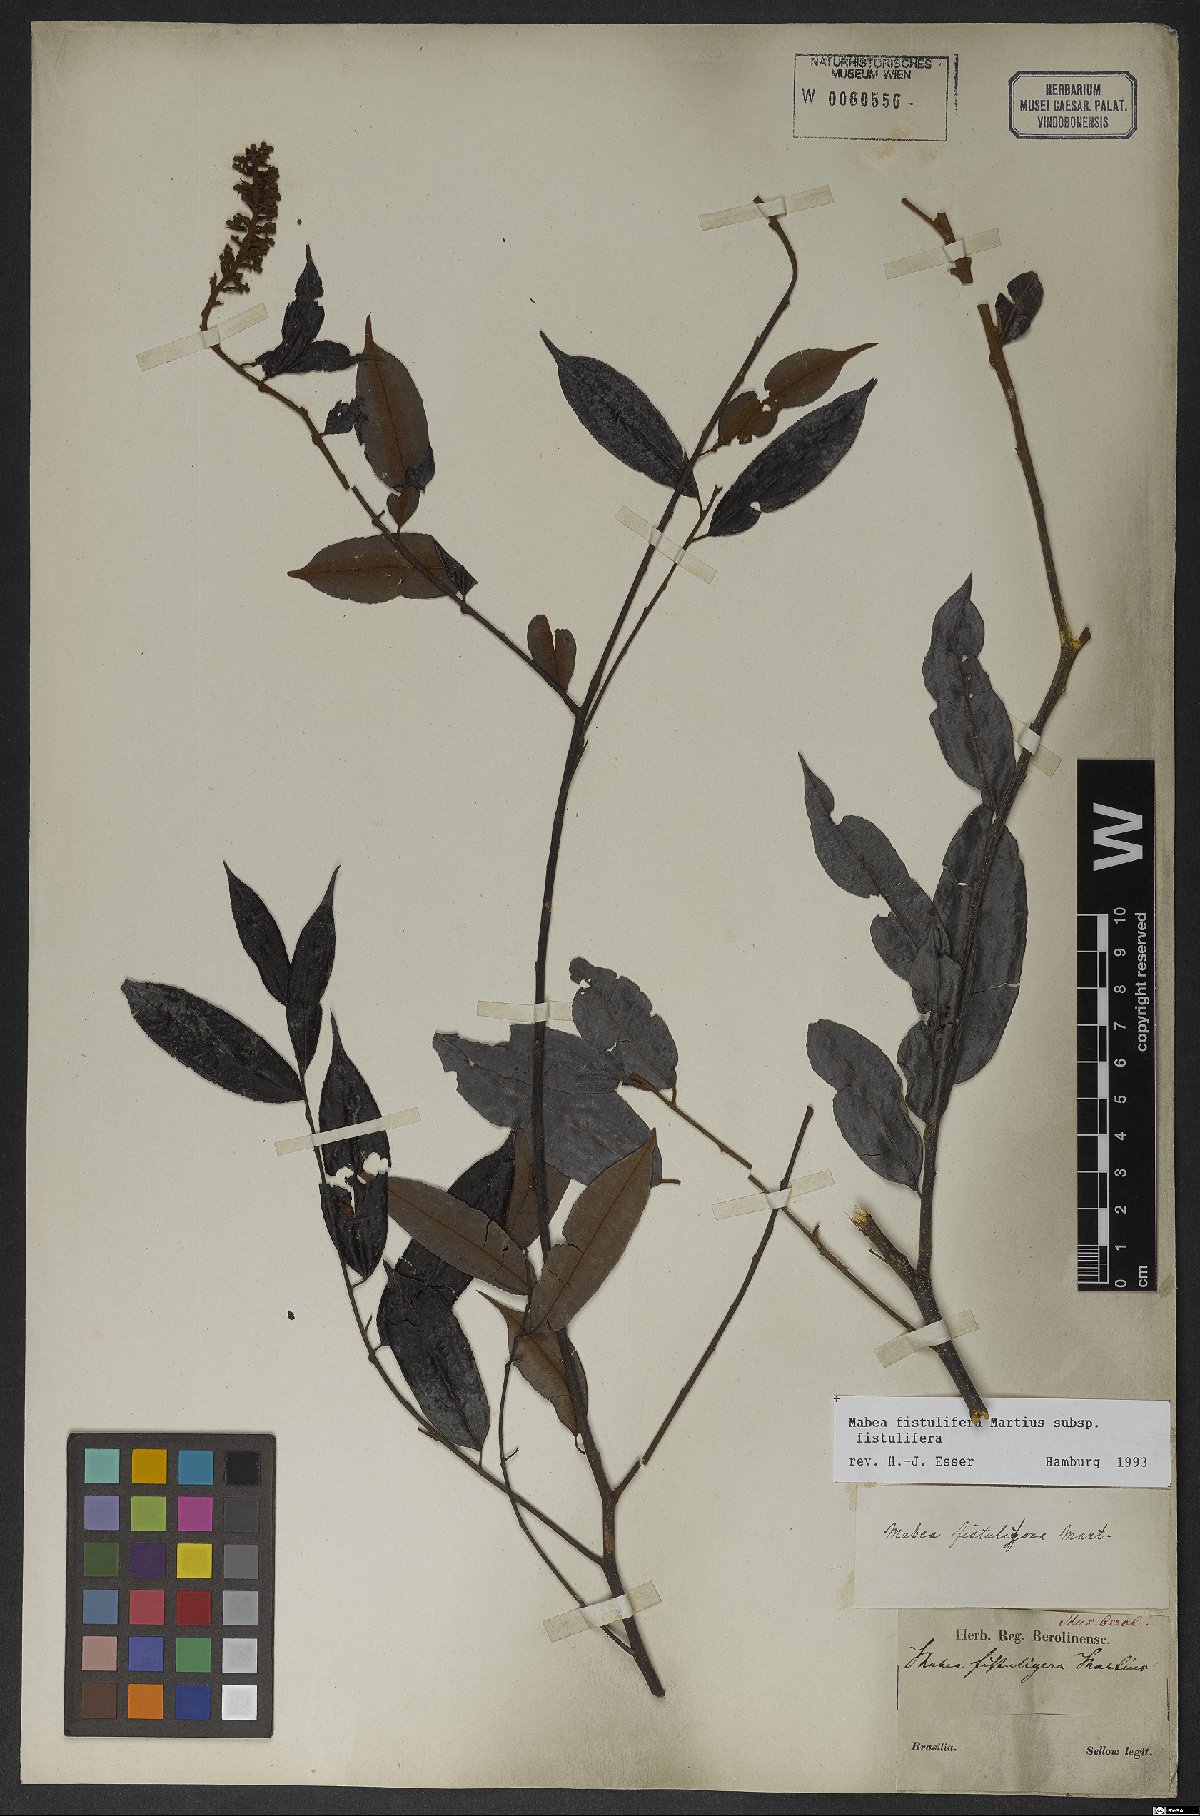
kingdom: Plantae
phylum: Tracheophyta
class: Magnoliopsida
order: Malpighiales
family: Euphorbiaceae
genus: Mabea
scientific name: Mabea fistulifera
